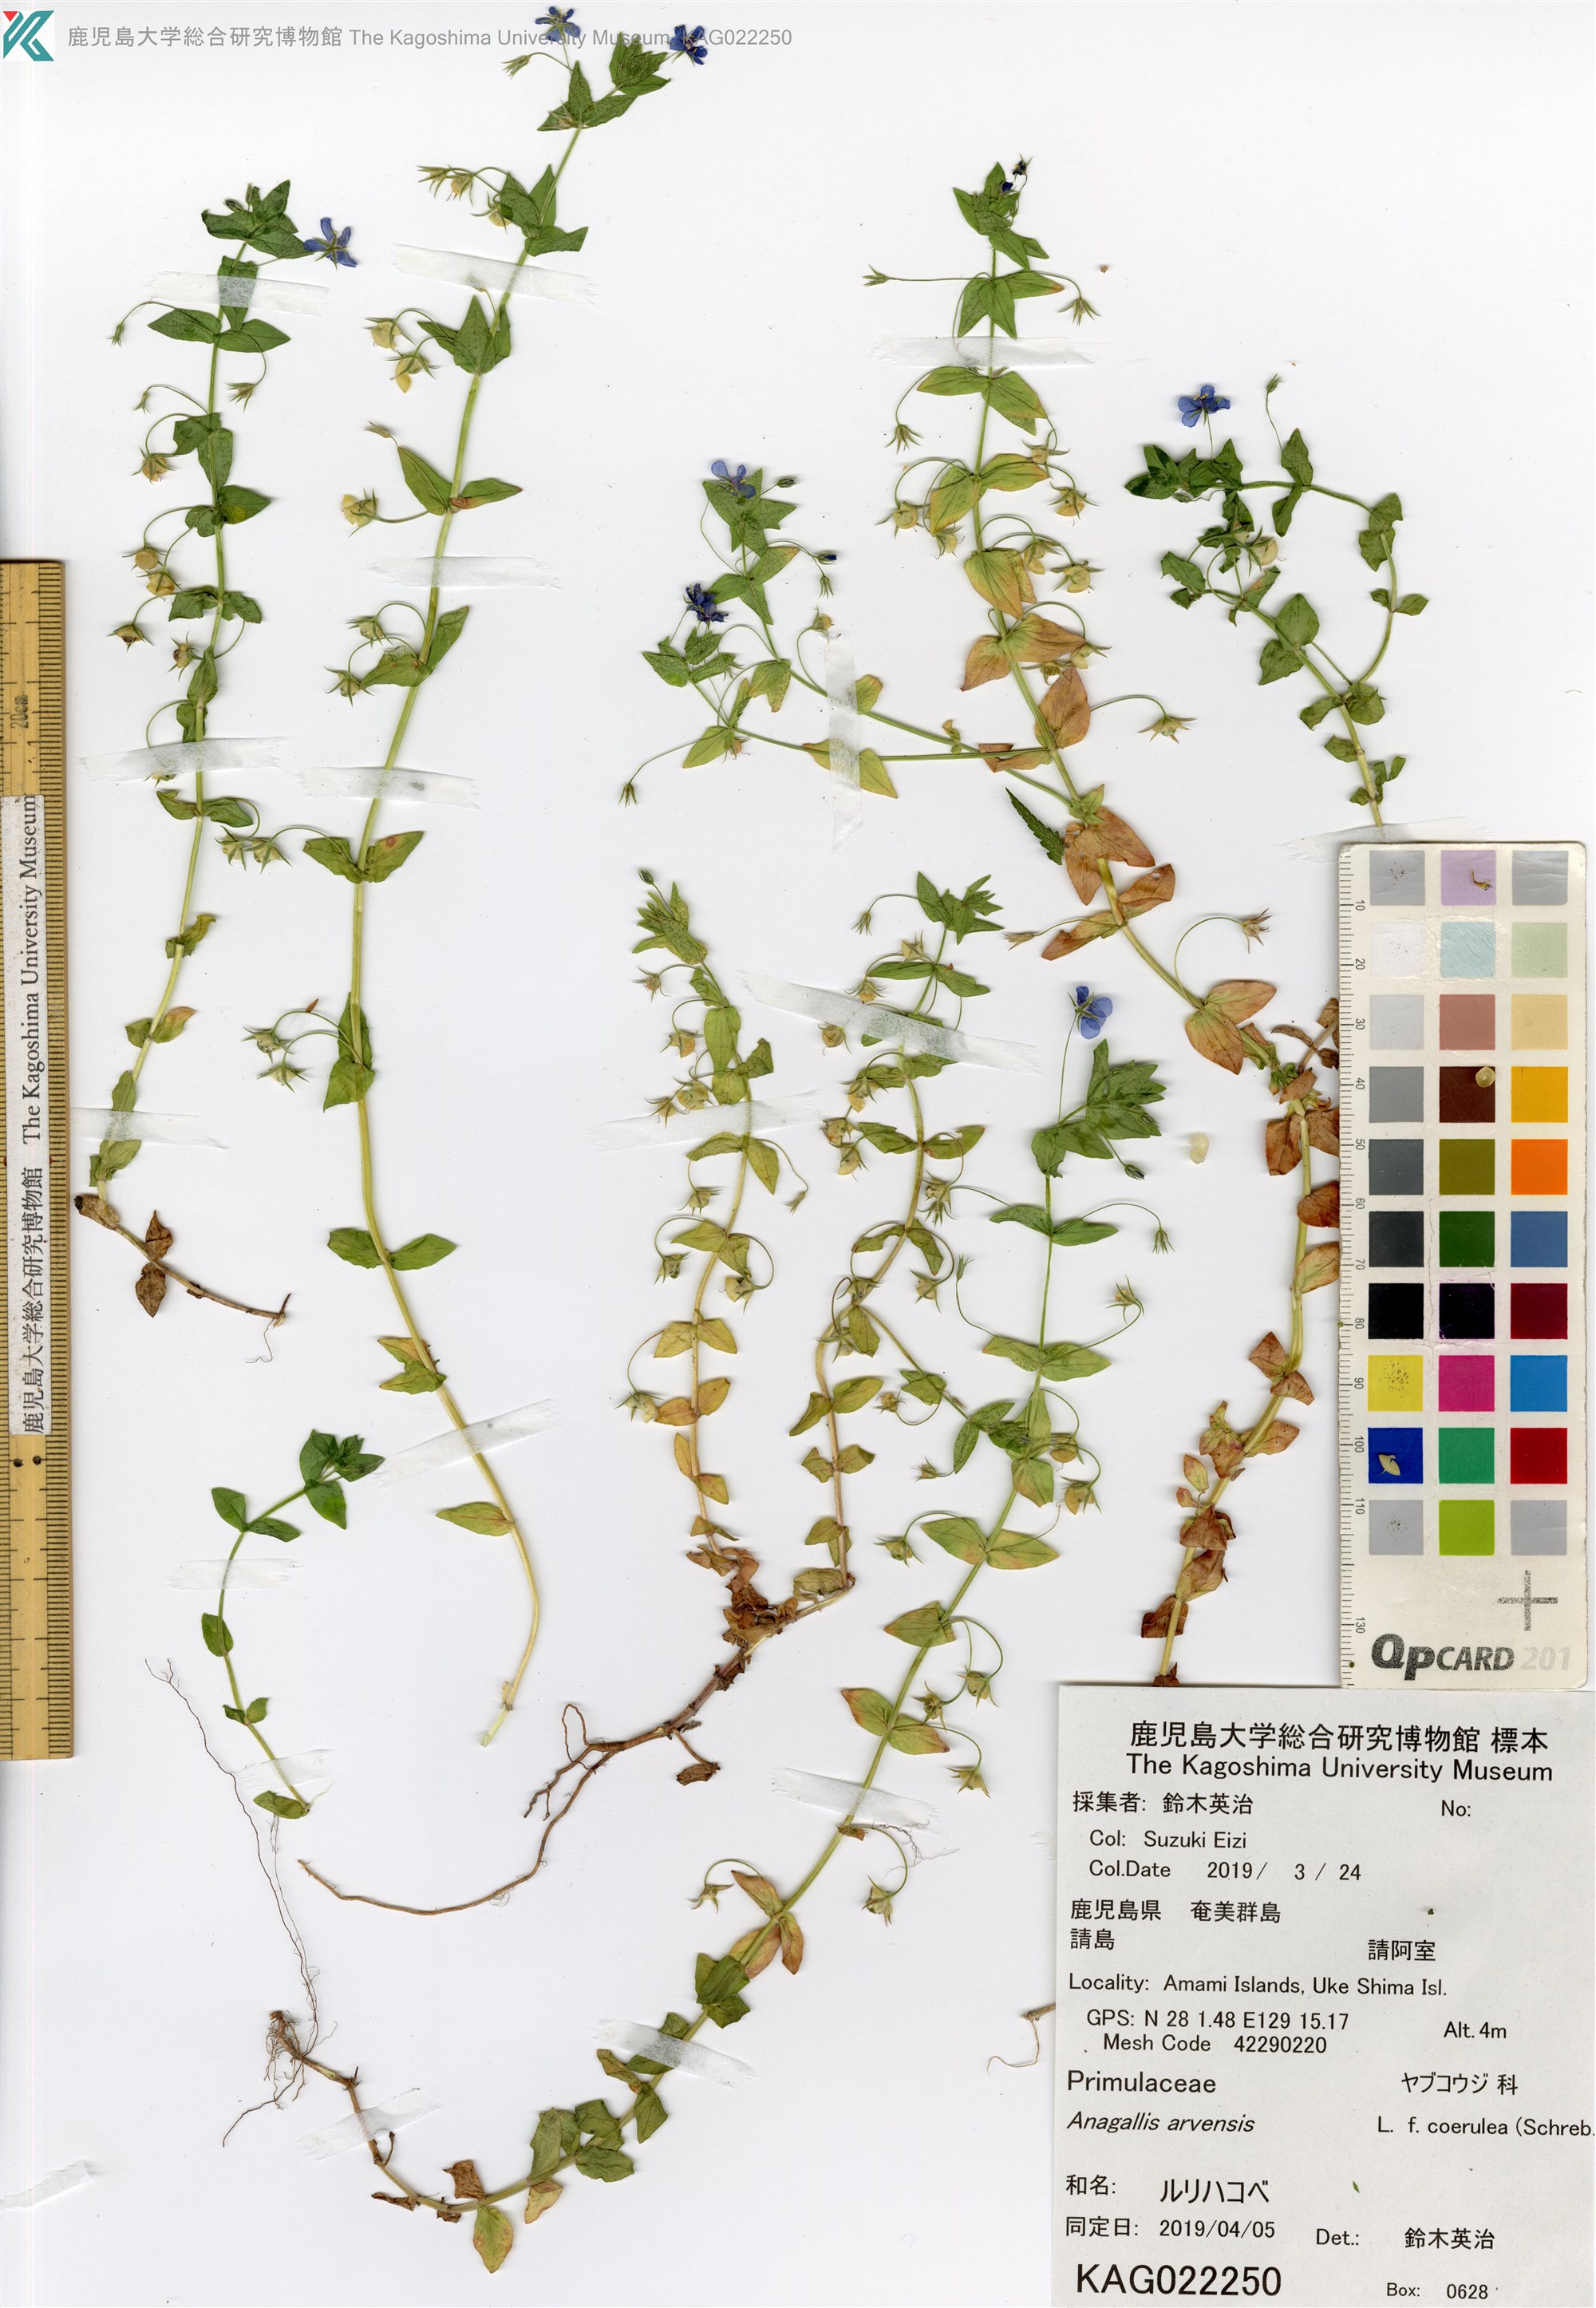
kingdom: Plantae
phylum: Tracheophyta
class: Magnoliopsida
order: Ericales
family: Primulaceae
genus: Lysimachia
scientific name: Lysimachia loeflingii
